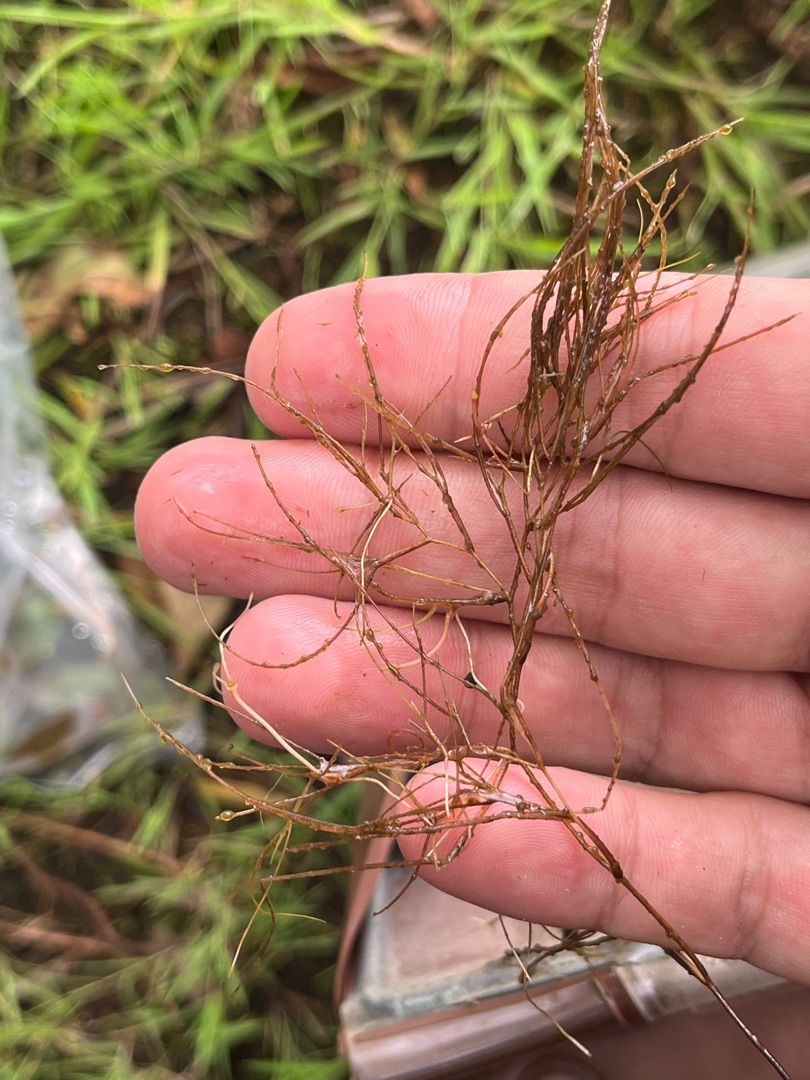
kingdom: Plantae
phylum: Tracheophyta
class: Liliopsida
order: Alismatales
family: Potamogetonaceae
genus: Stuckenia
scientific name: Stuckenia pectinata
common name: Børstebladet vandaks
